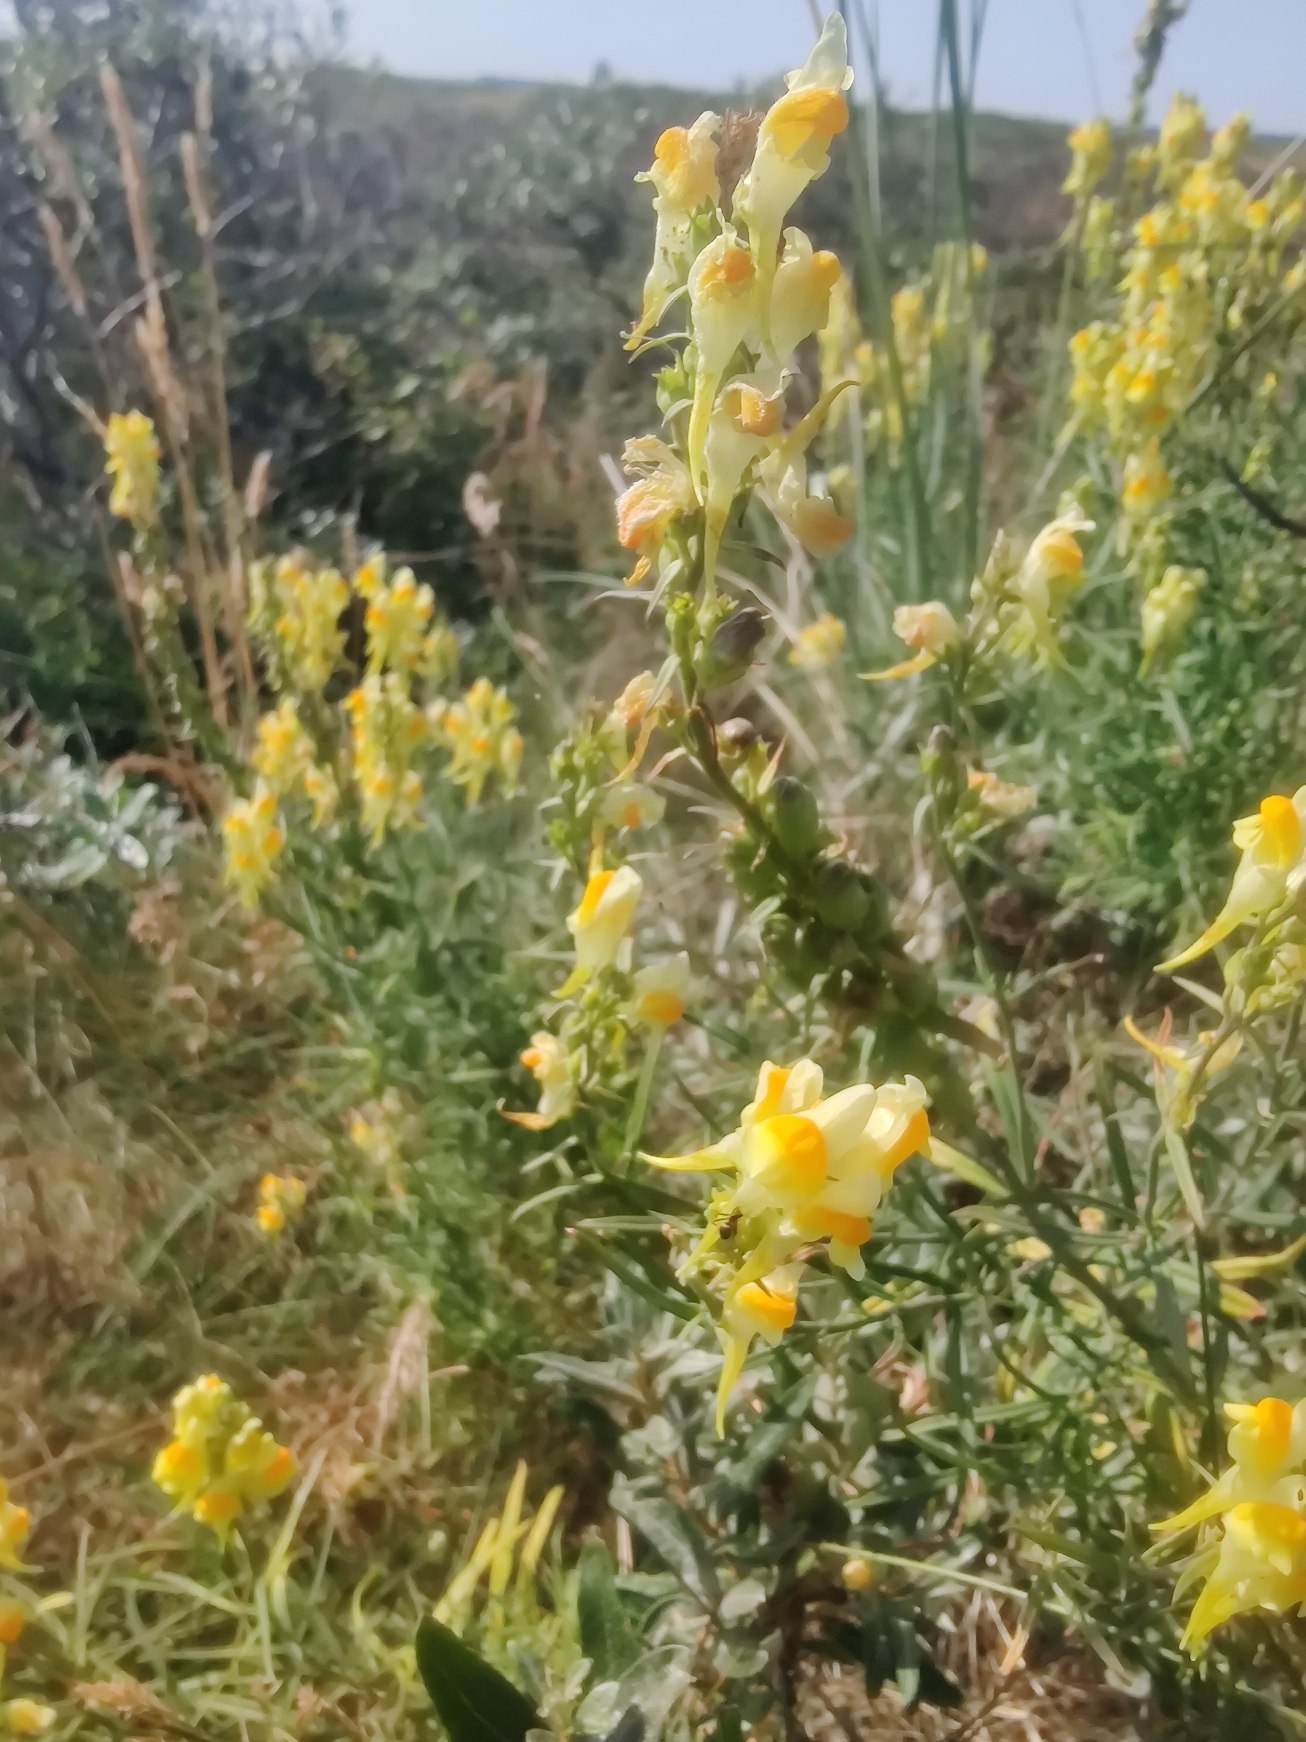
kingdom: Plantae
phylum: Tracheophyta
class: Magnoliopsida
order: Lamiales
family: Plantaginaceae
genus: Linaria
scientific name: Linaria vulgaris
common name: Almindelig torskemund
